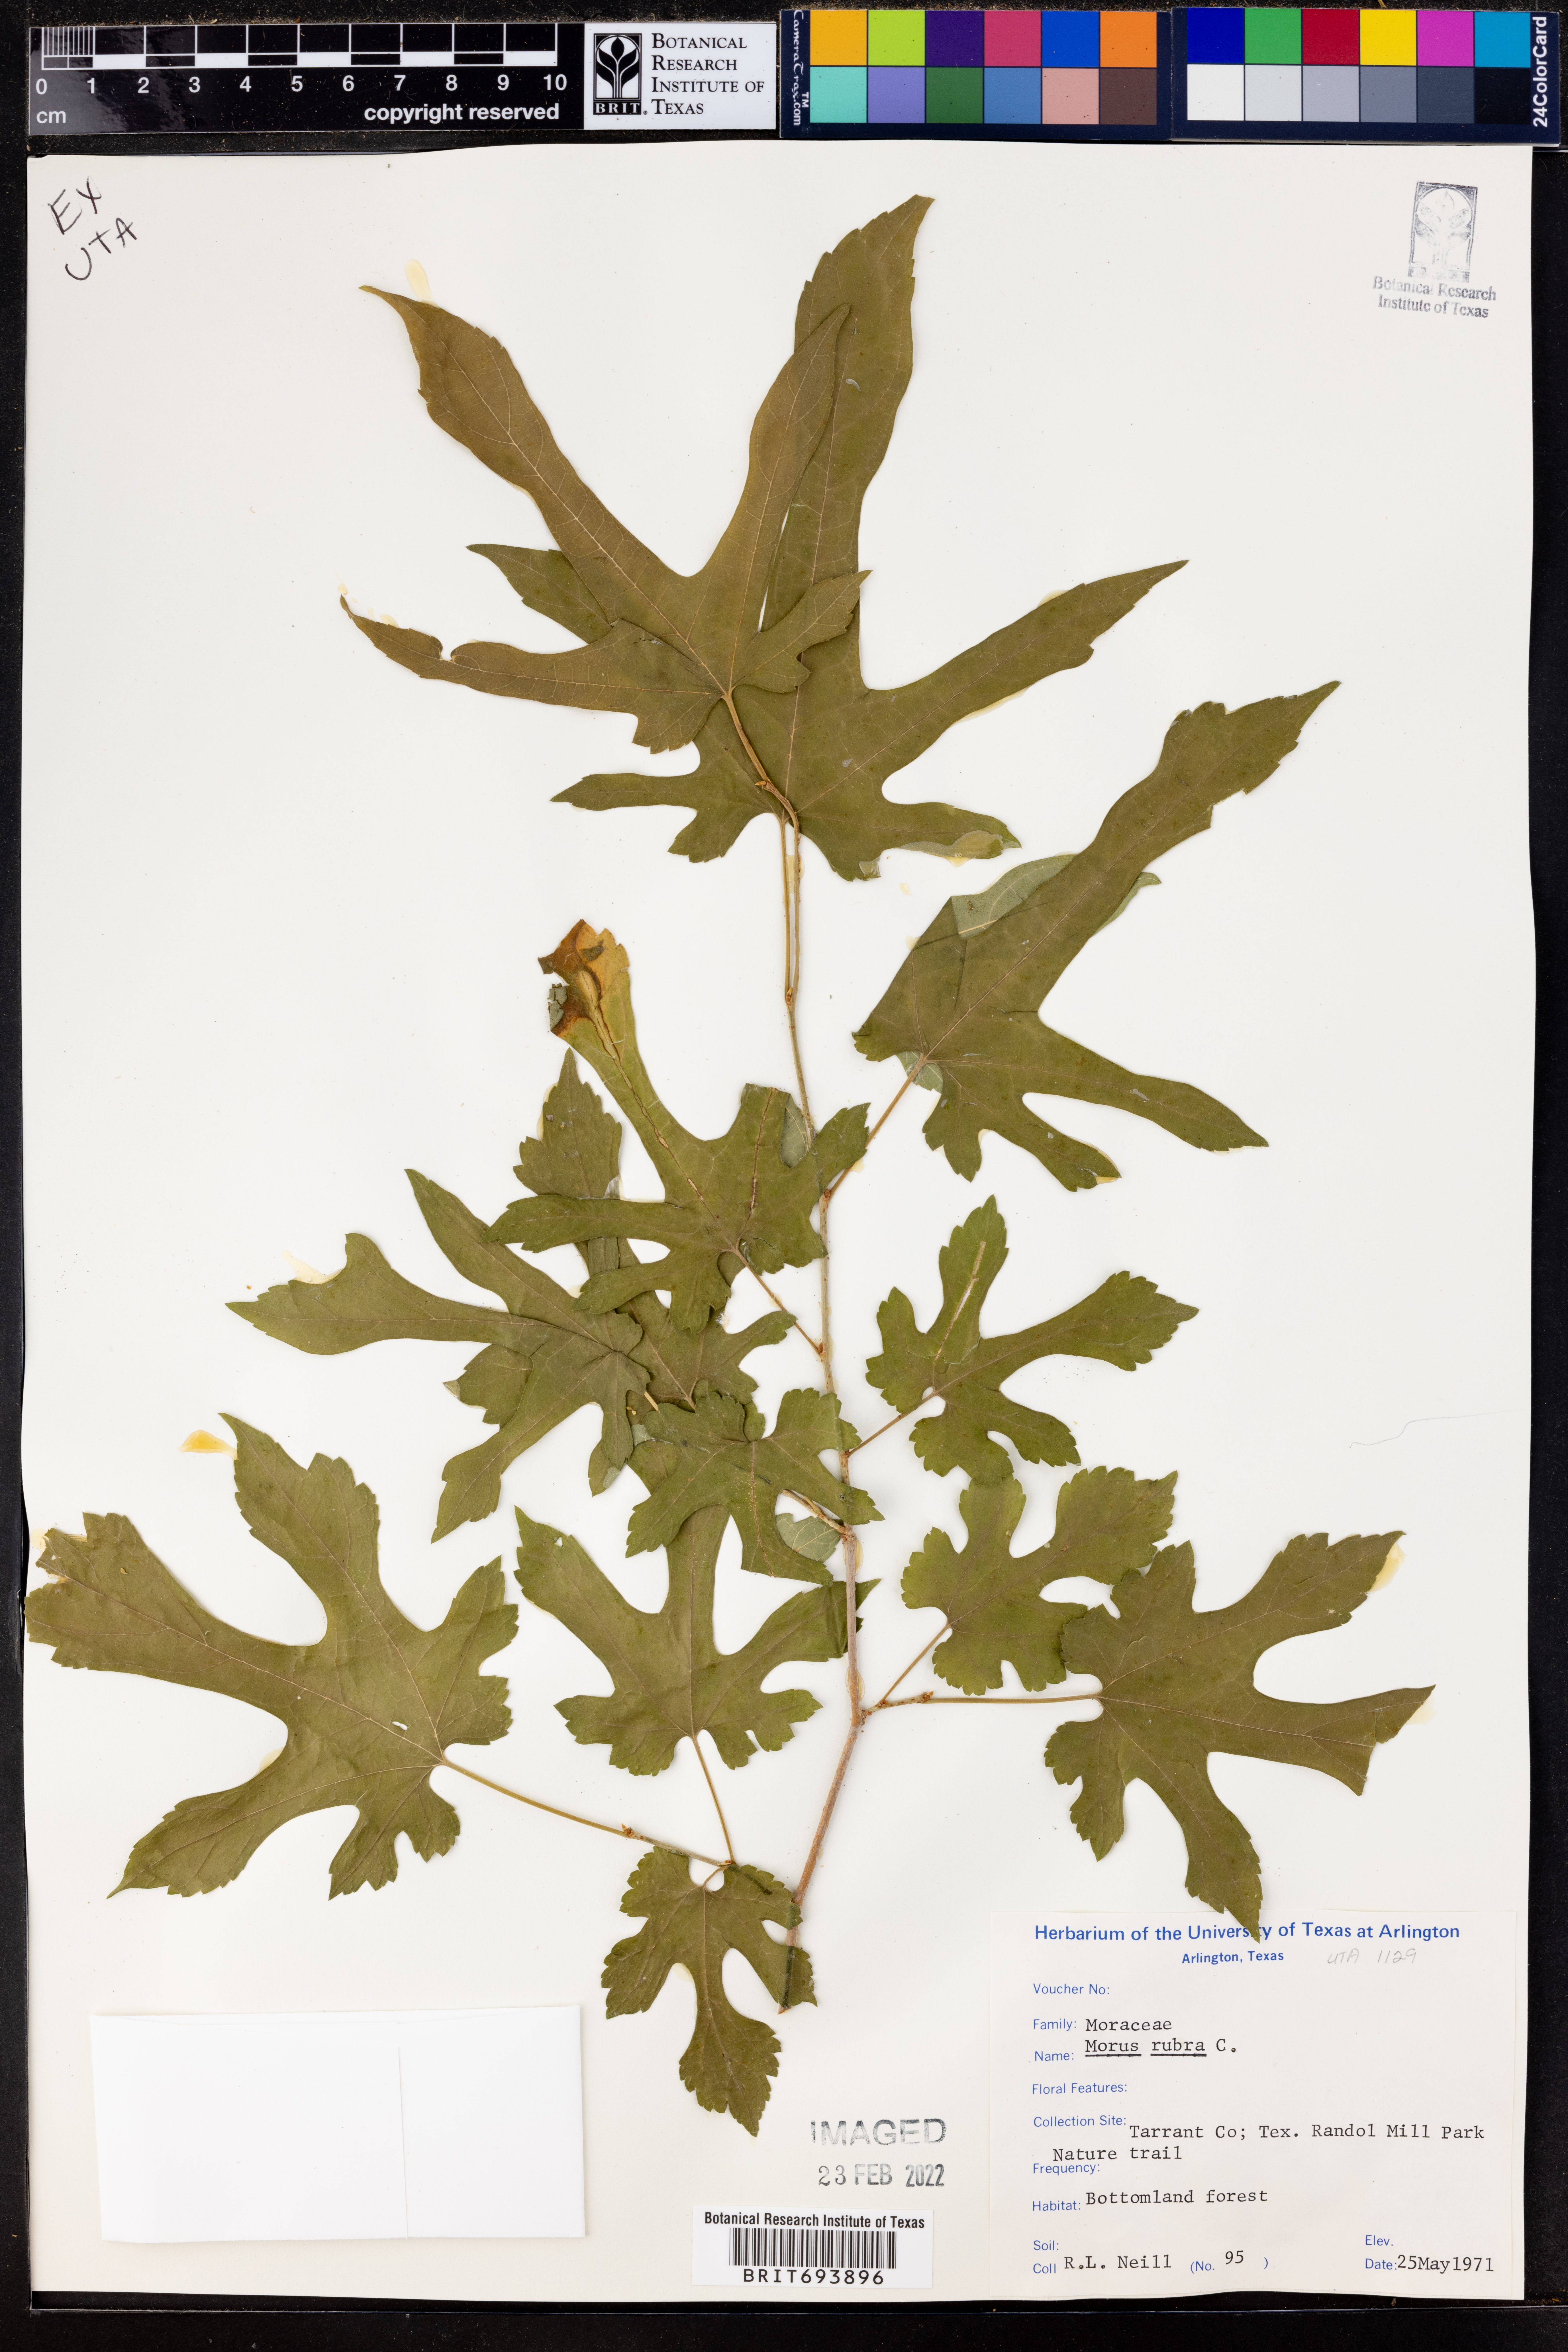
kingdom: Plantae
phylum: Tracheophyta
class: Magnoliopsida
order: Rosales
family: Moraceae
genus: Morus
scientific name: Morus rubra
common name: Red mulberry
